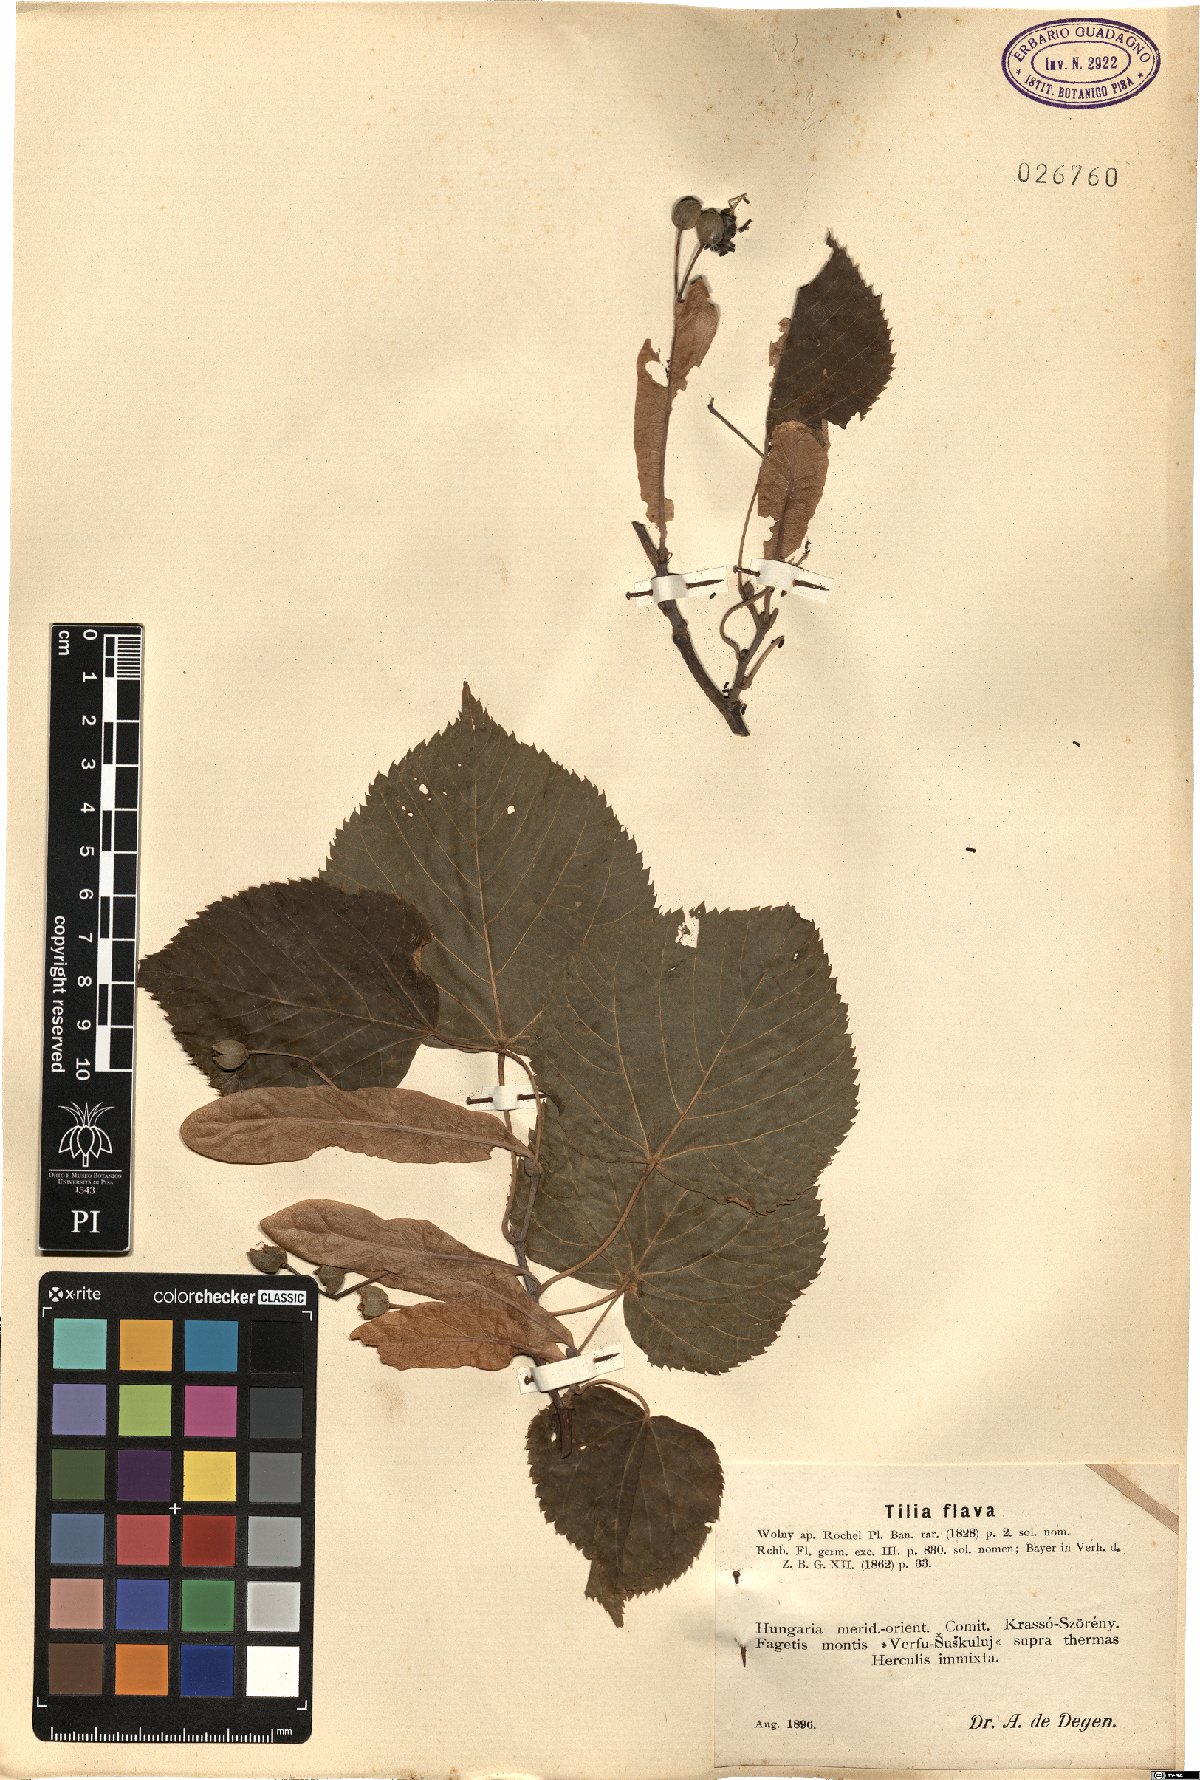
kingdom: Plantae
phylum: Tracheophyta
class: Magnoliopsida
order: Malvales
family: Malvaceae
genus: Tilia
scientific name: Tilia platyphyllos
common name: Large-leaved lime
